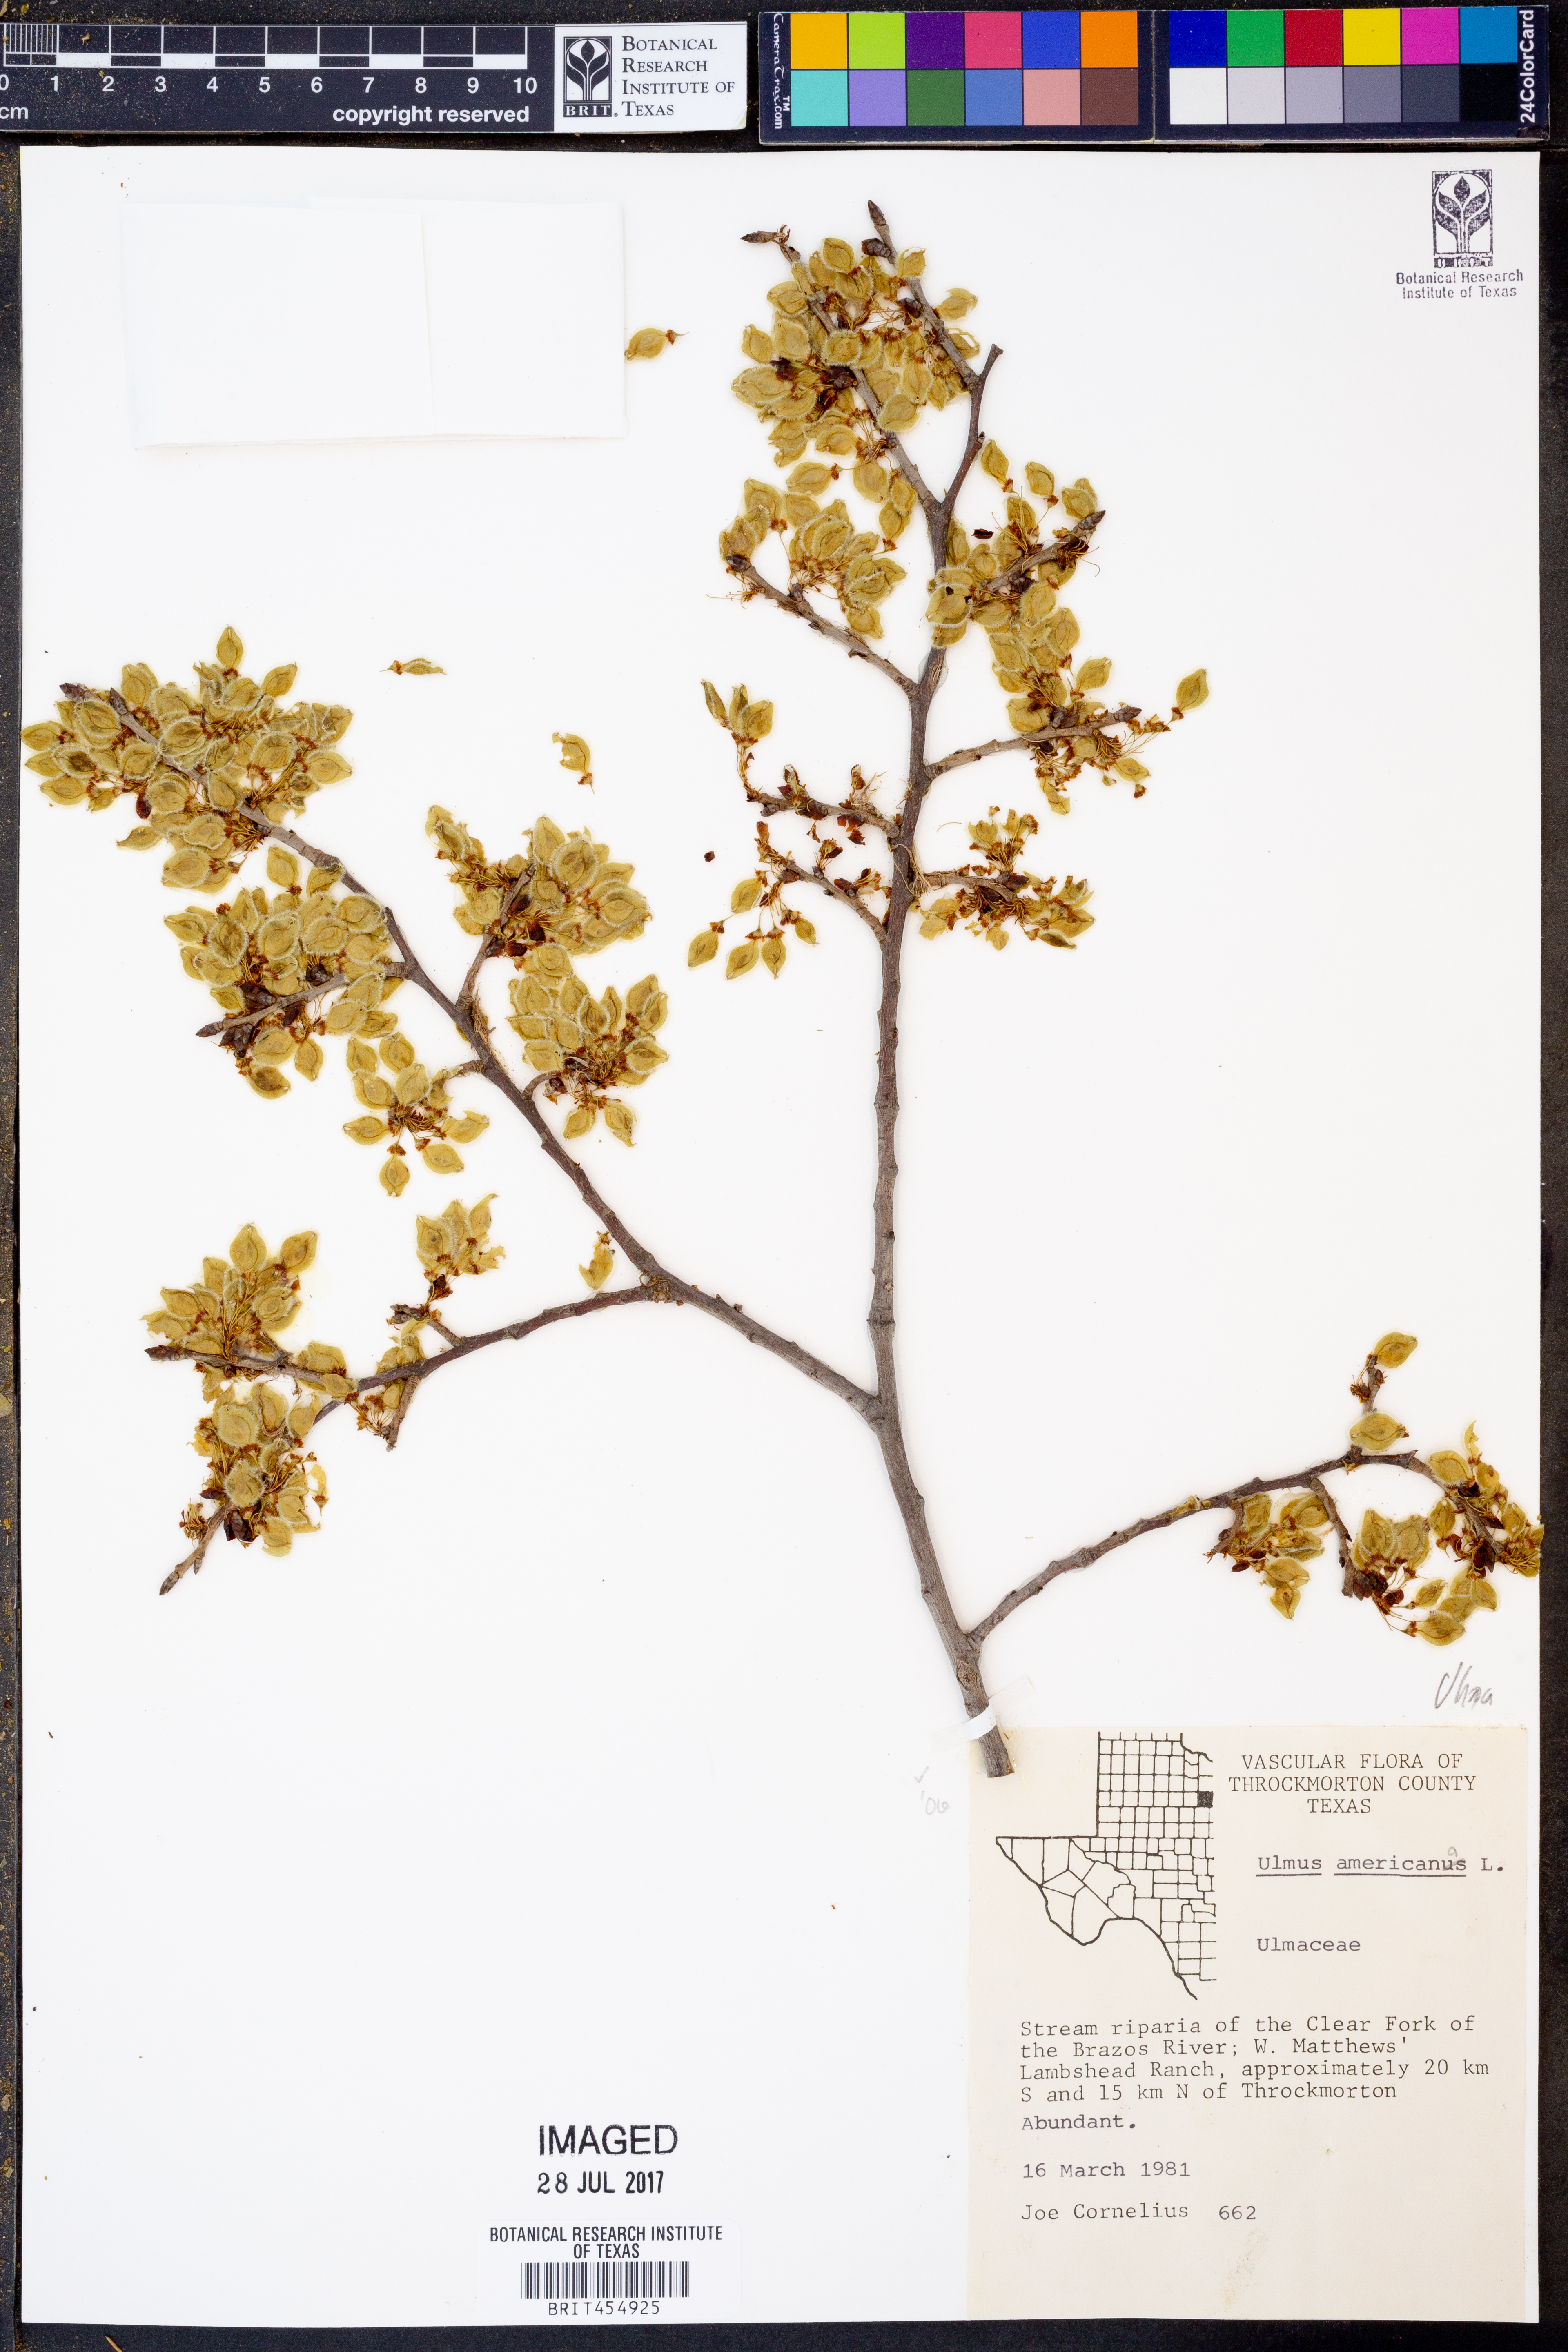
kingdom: Plantae
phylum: Tracheophyta
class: Magnoliopsida
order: Rosales
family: Ulmaceae
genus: Ulmus
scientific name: Ulmus americana
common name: American elm
